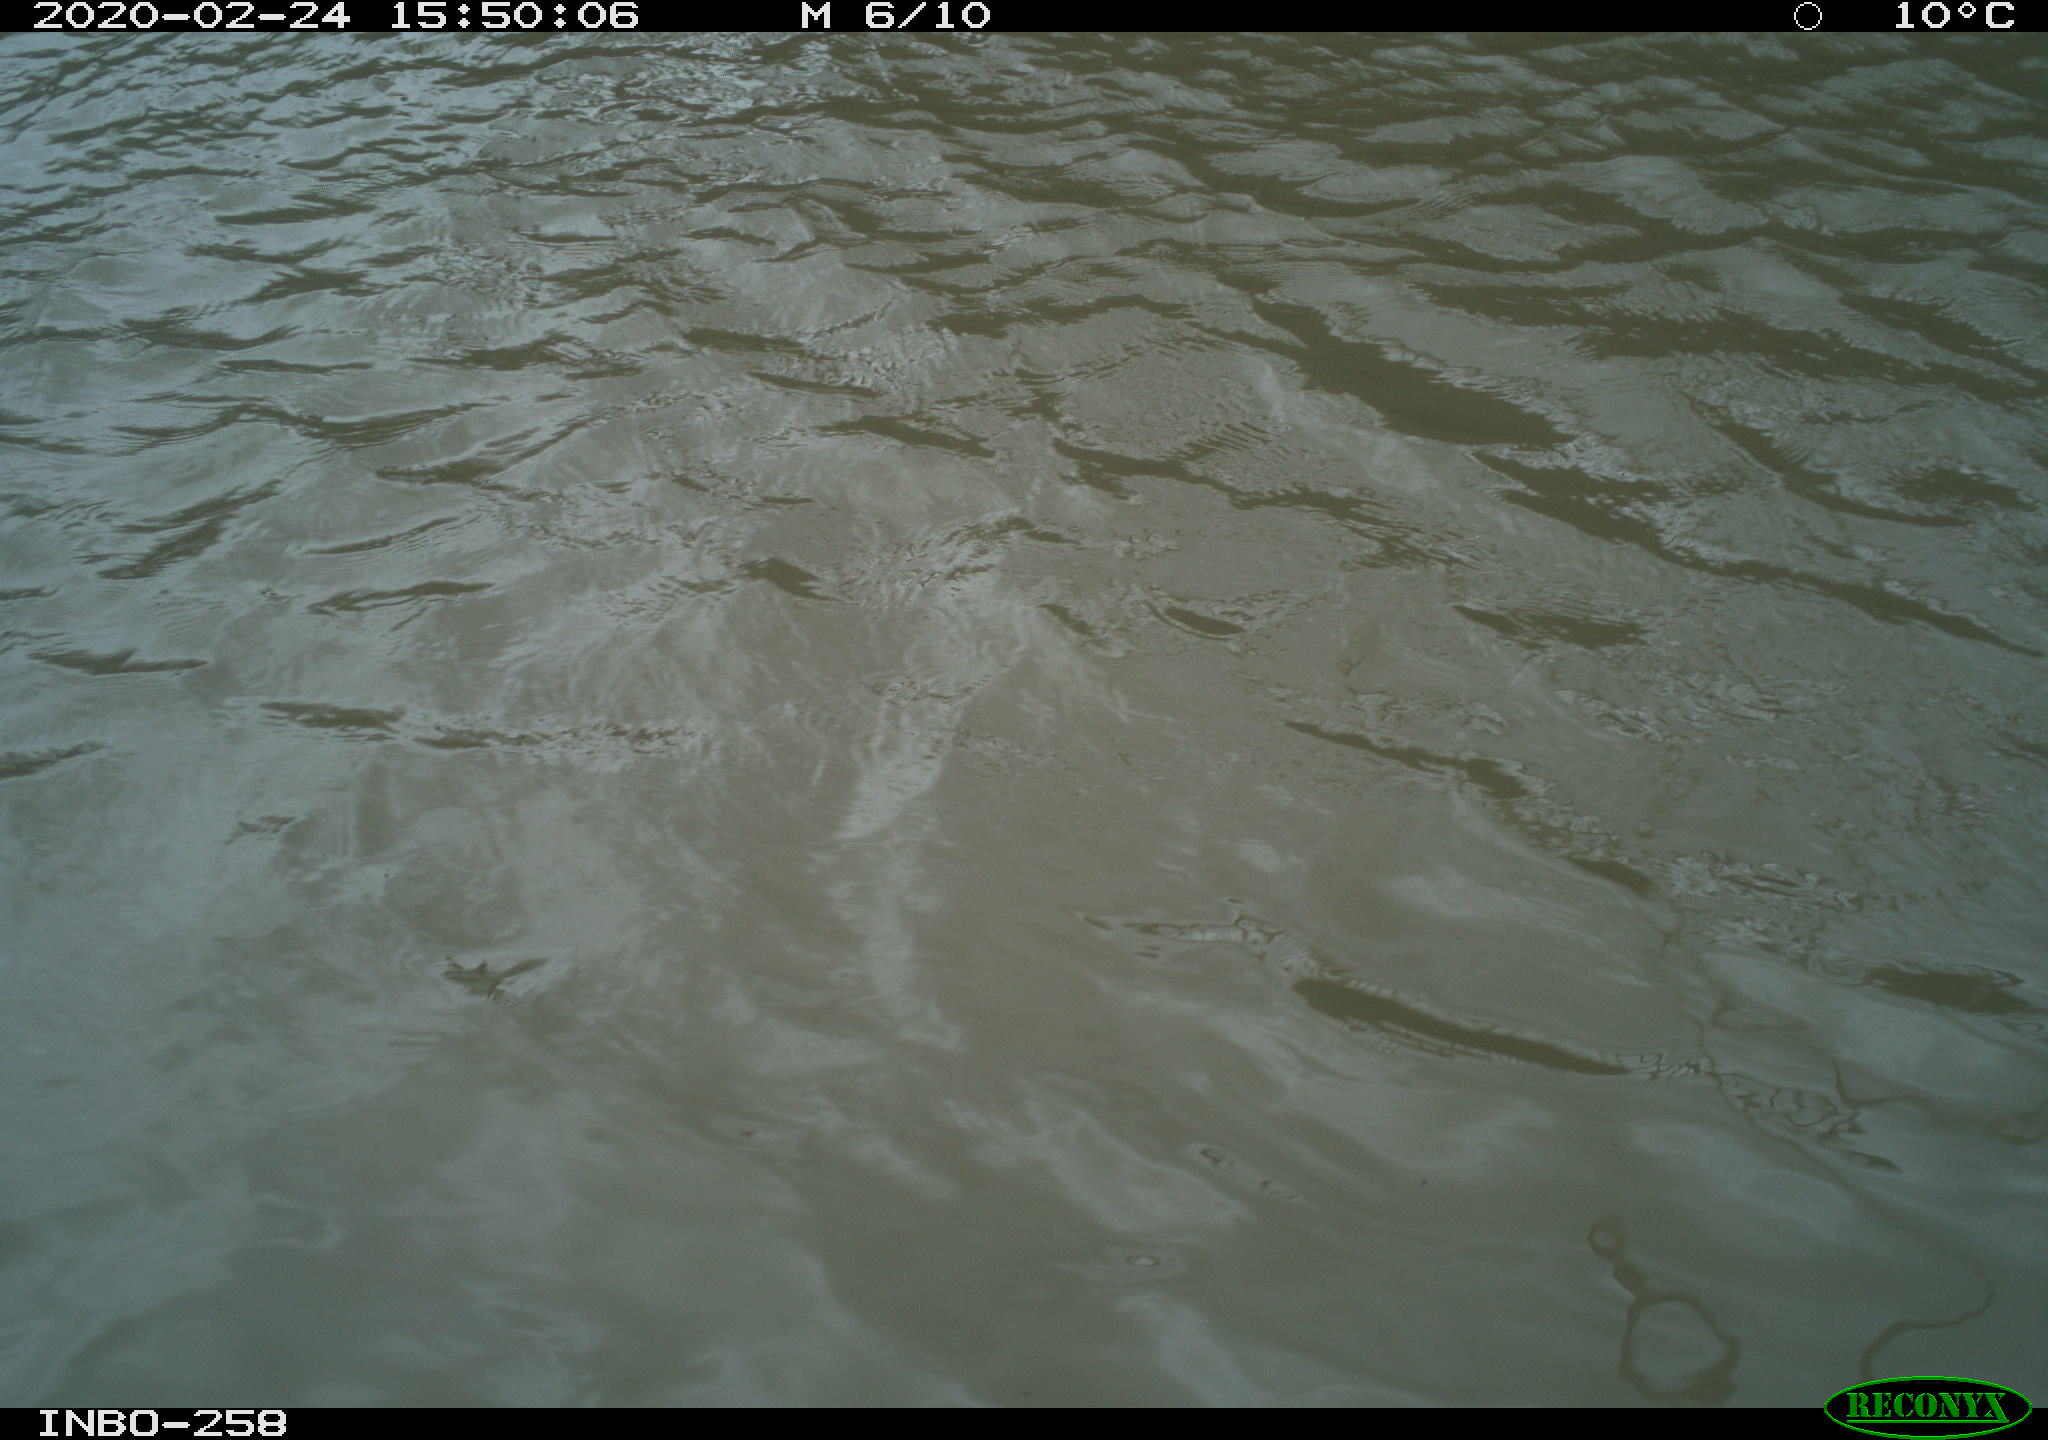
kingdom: Animalia
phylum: Chordata
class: Aves
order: Gruiformes
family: Rallidae
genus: Gallinula
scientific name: Gallinula chloropus
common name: Common moorhen
